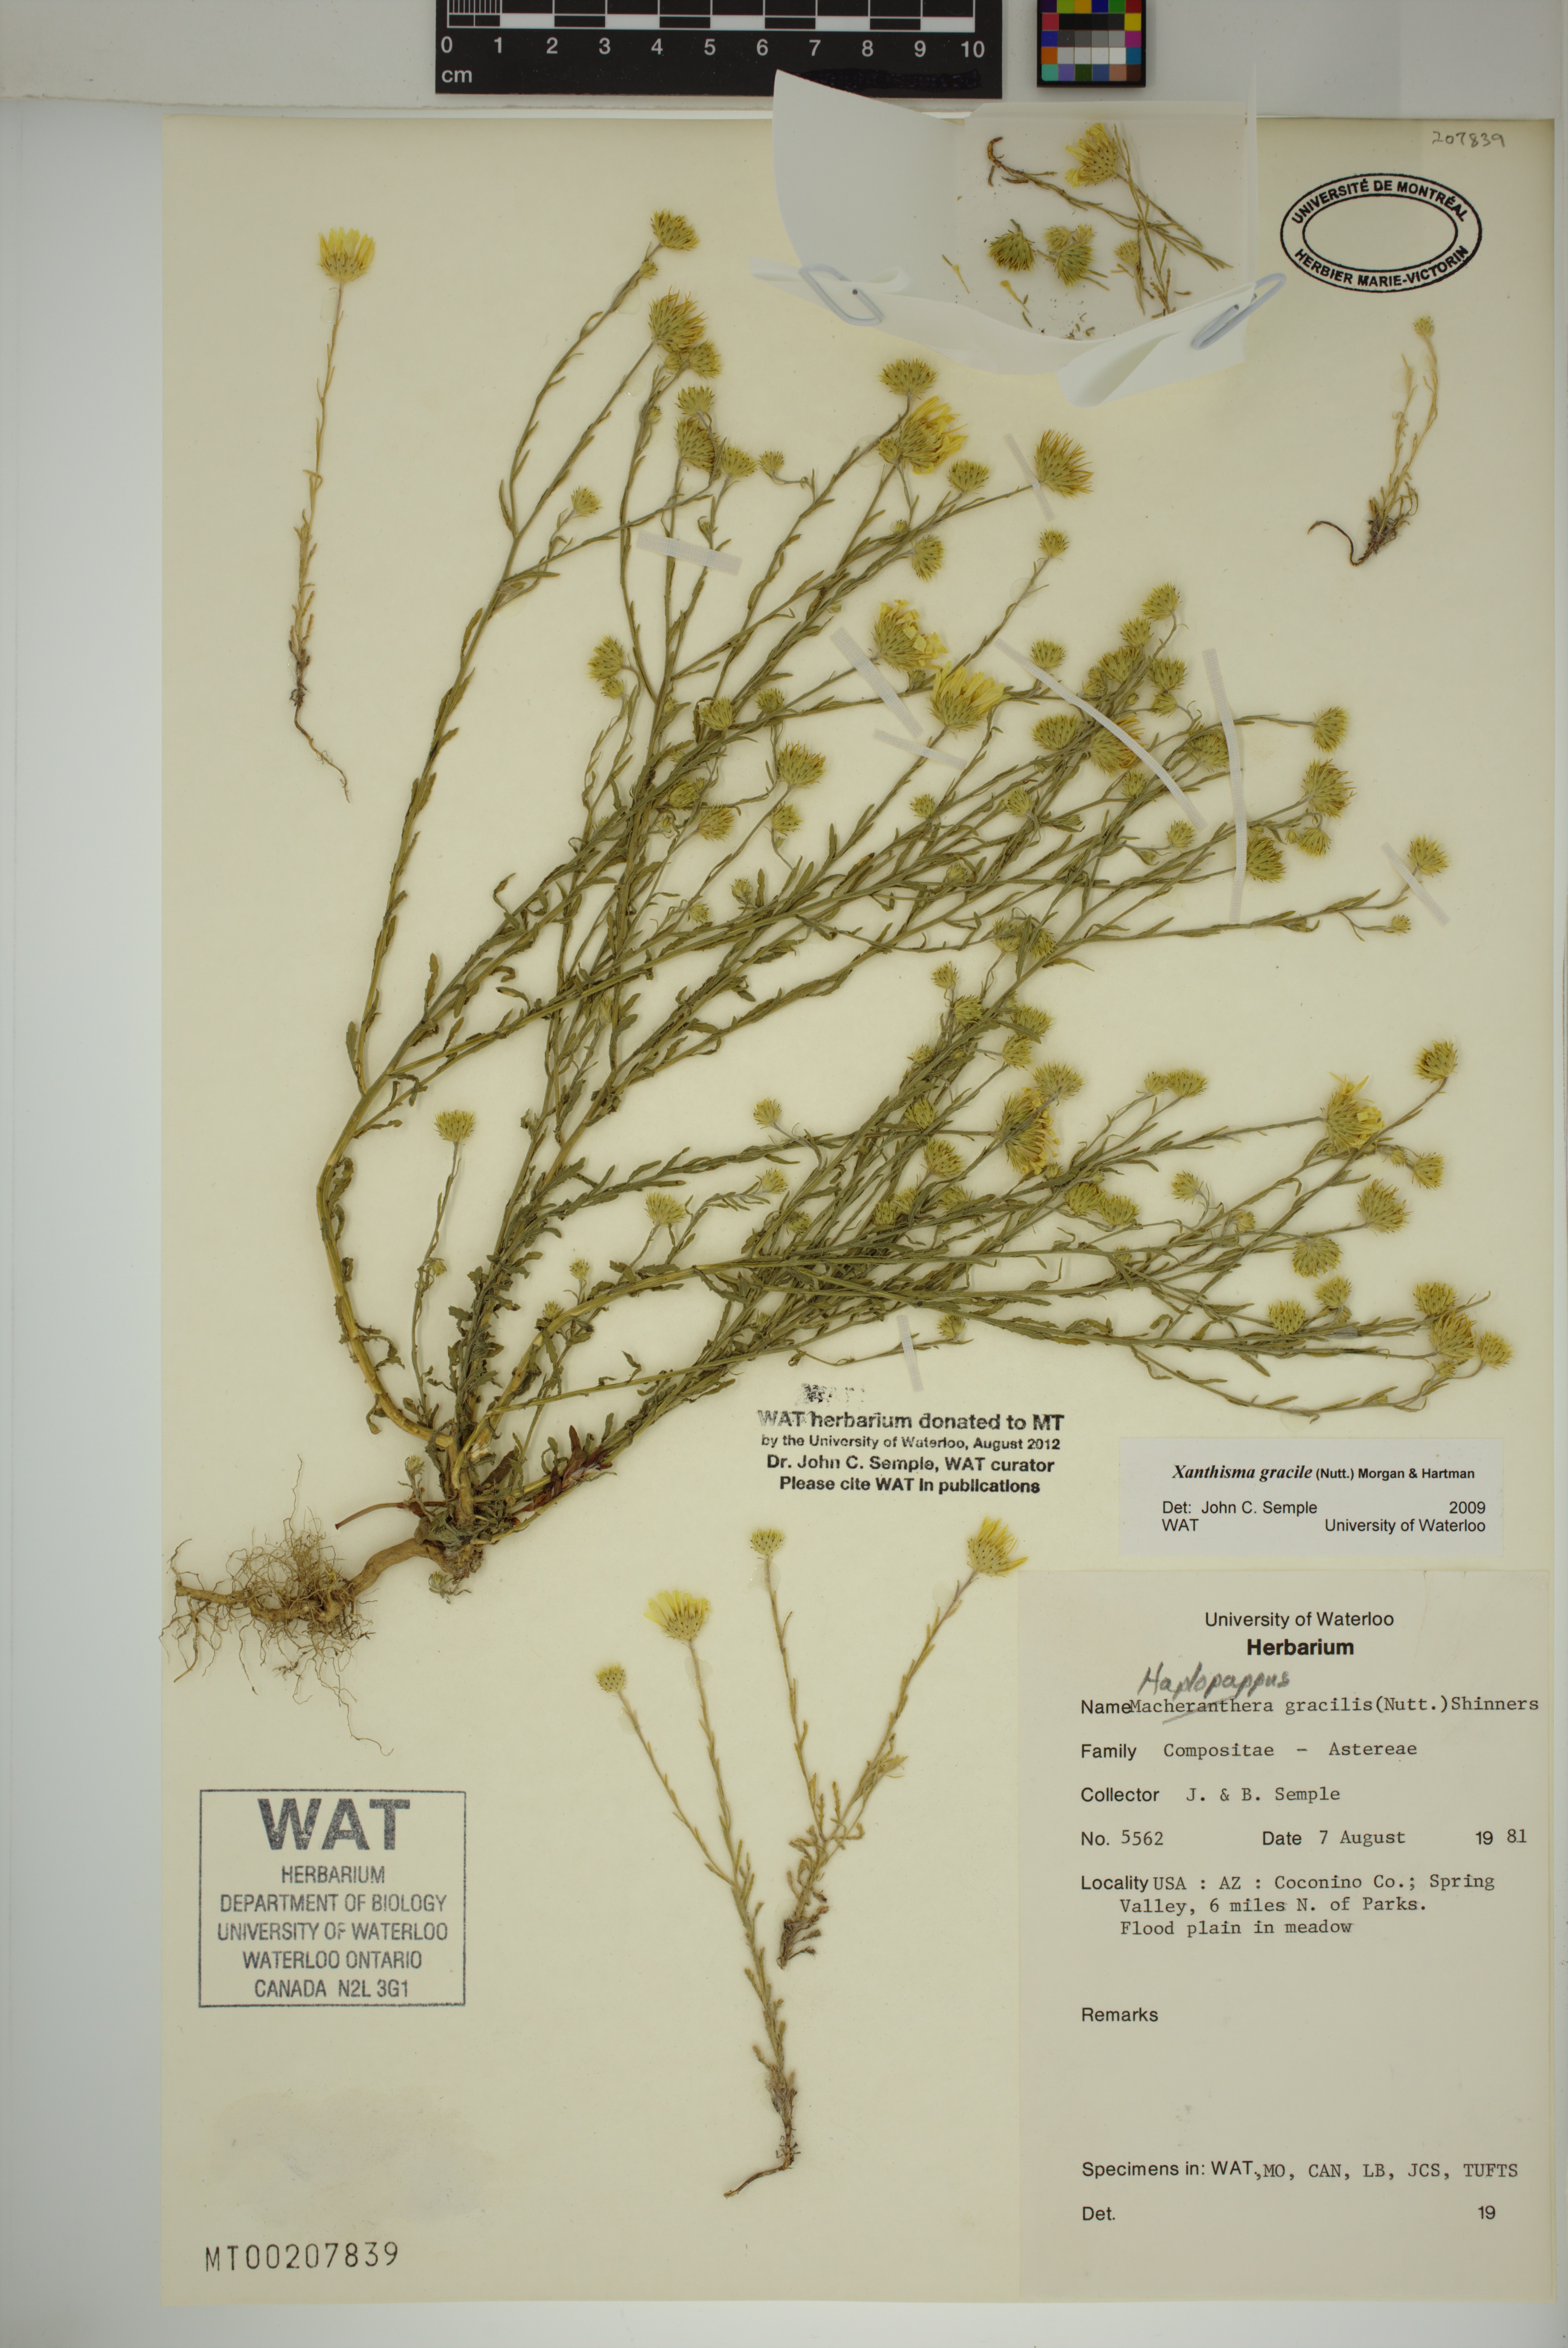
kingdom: Plantae
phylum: Tracheophyta
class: Magnoliopsida
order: Asterales
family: Asteraceae
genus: Xanthisma
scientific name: Xanthisma gracile
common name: Slender goldenweed
